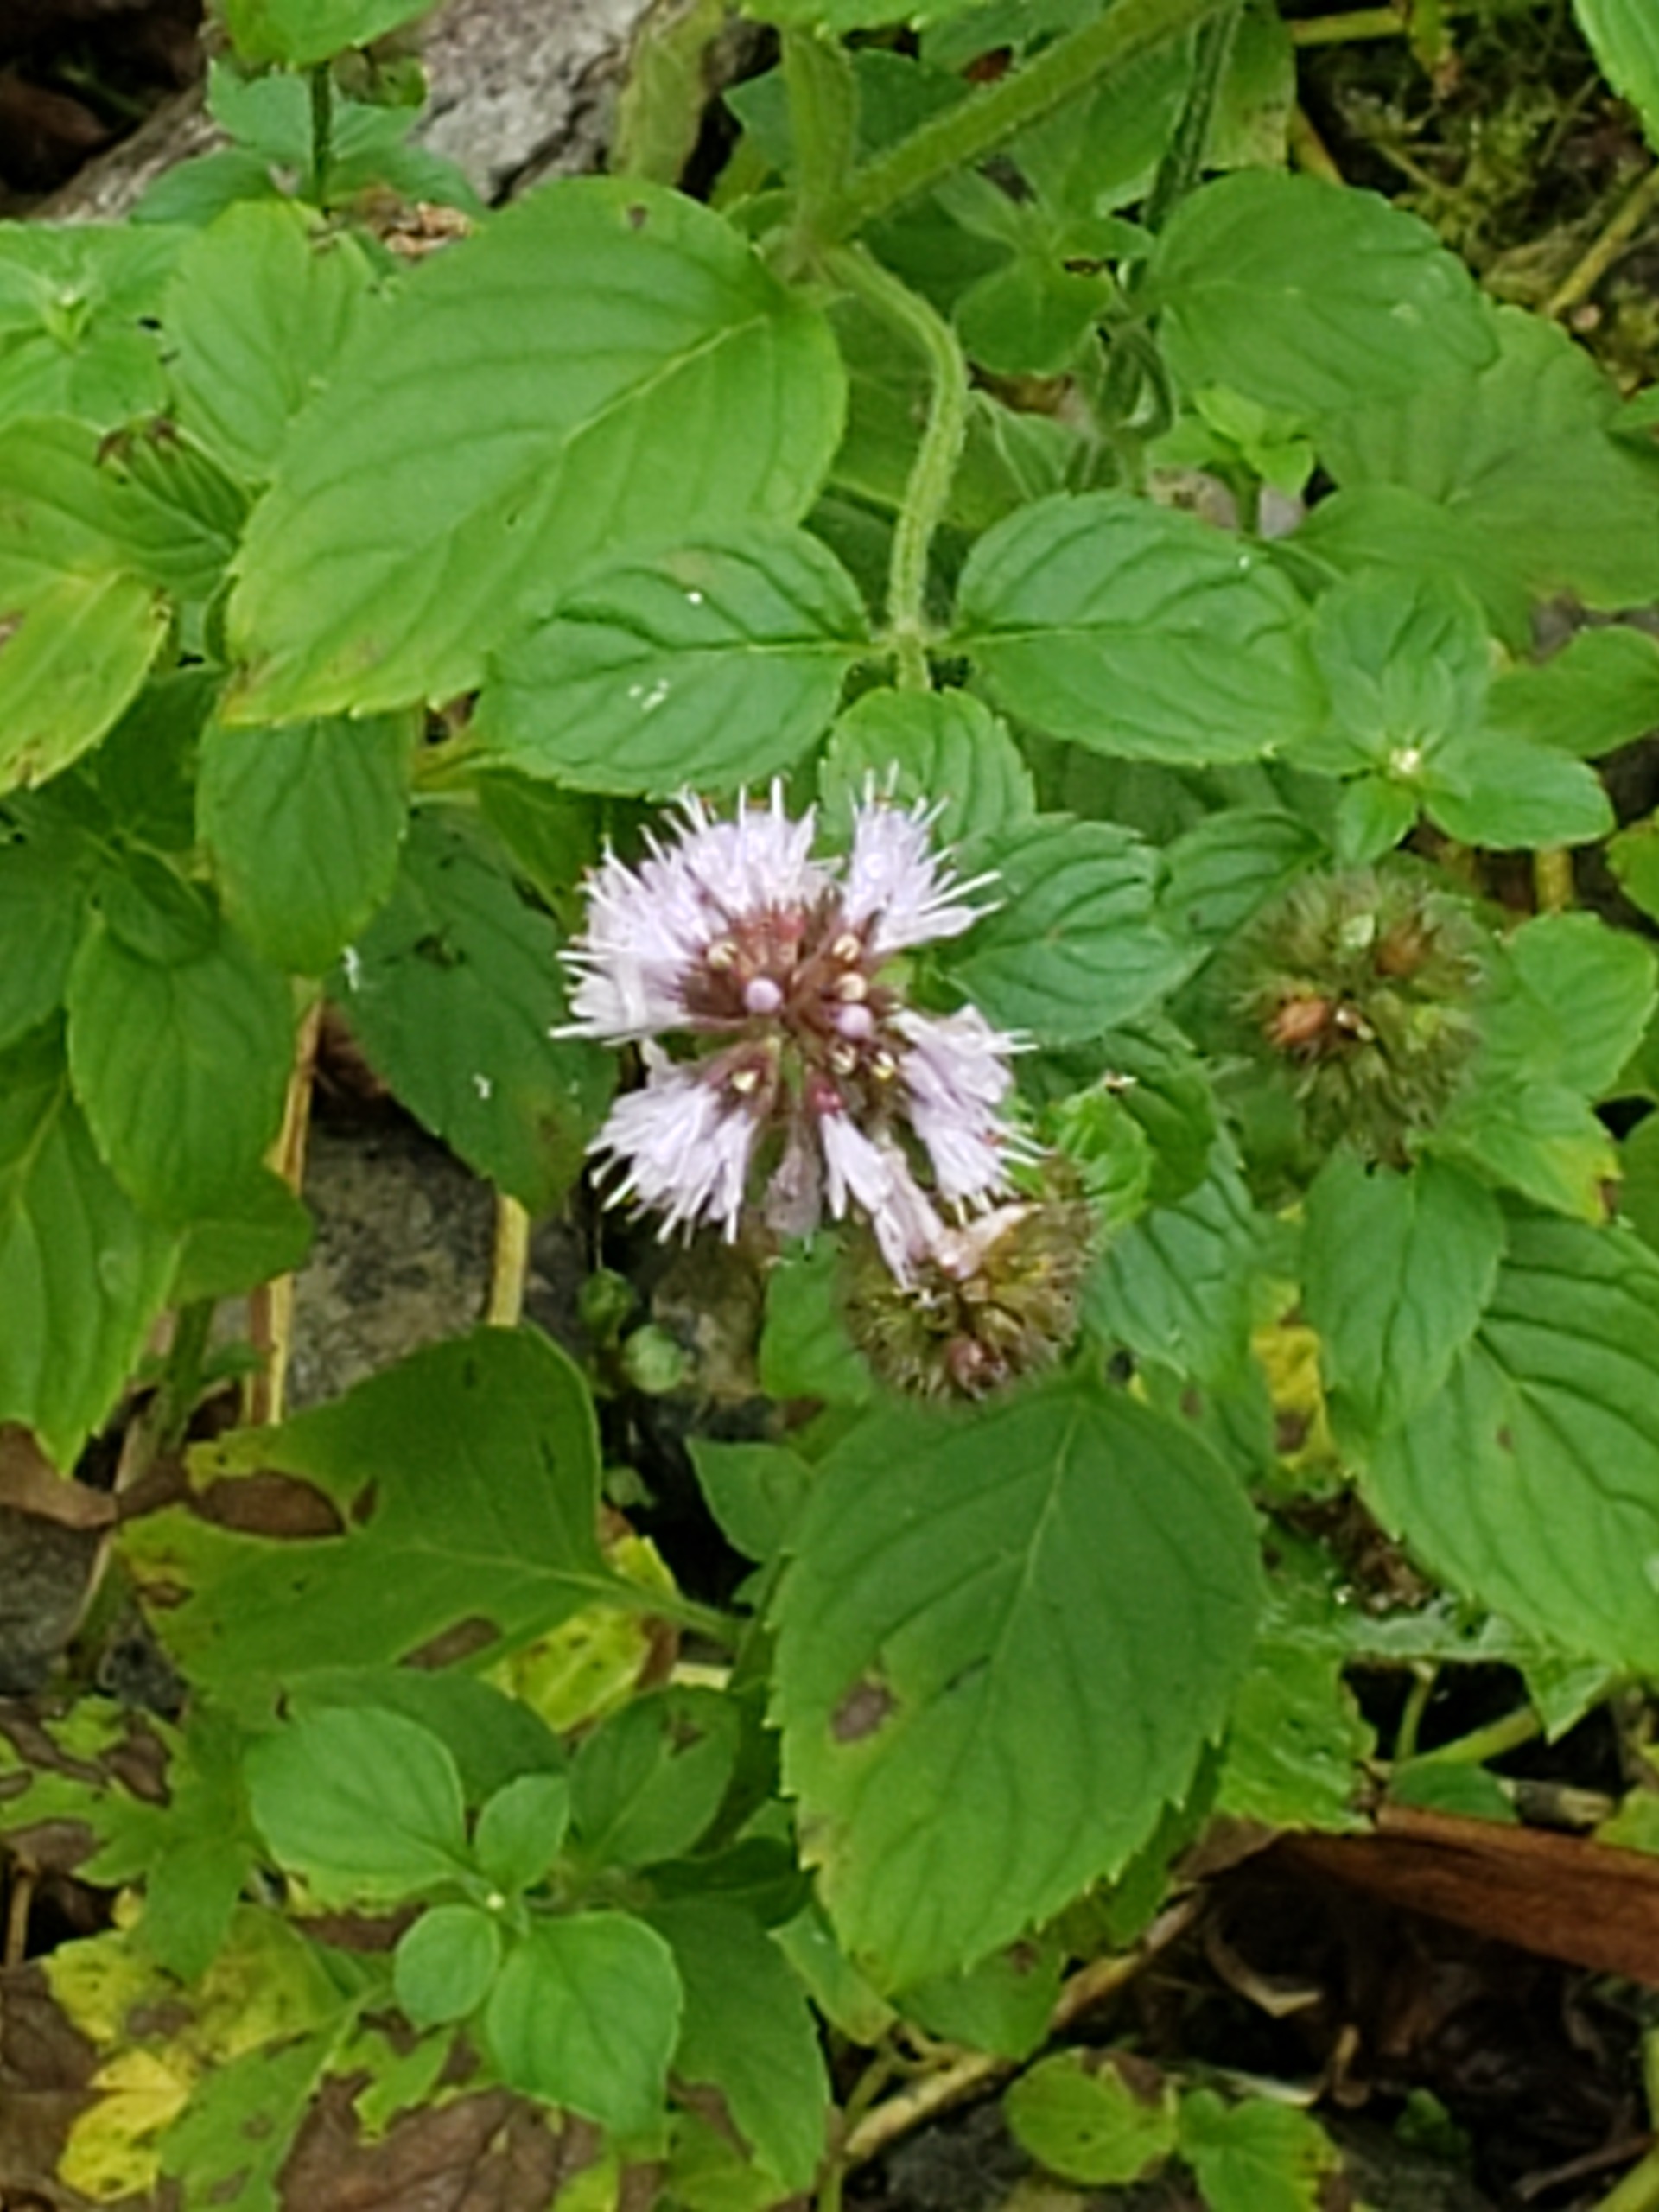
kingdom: Plantae
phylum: Tracheophyta
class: Magnoliopsida
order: Lamiales
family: Lamiaceae
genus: Mentha
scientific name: Mentha aquatica
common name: Vand-mynte
